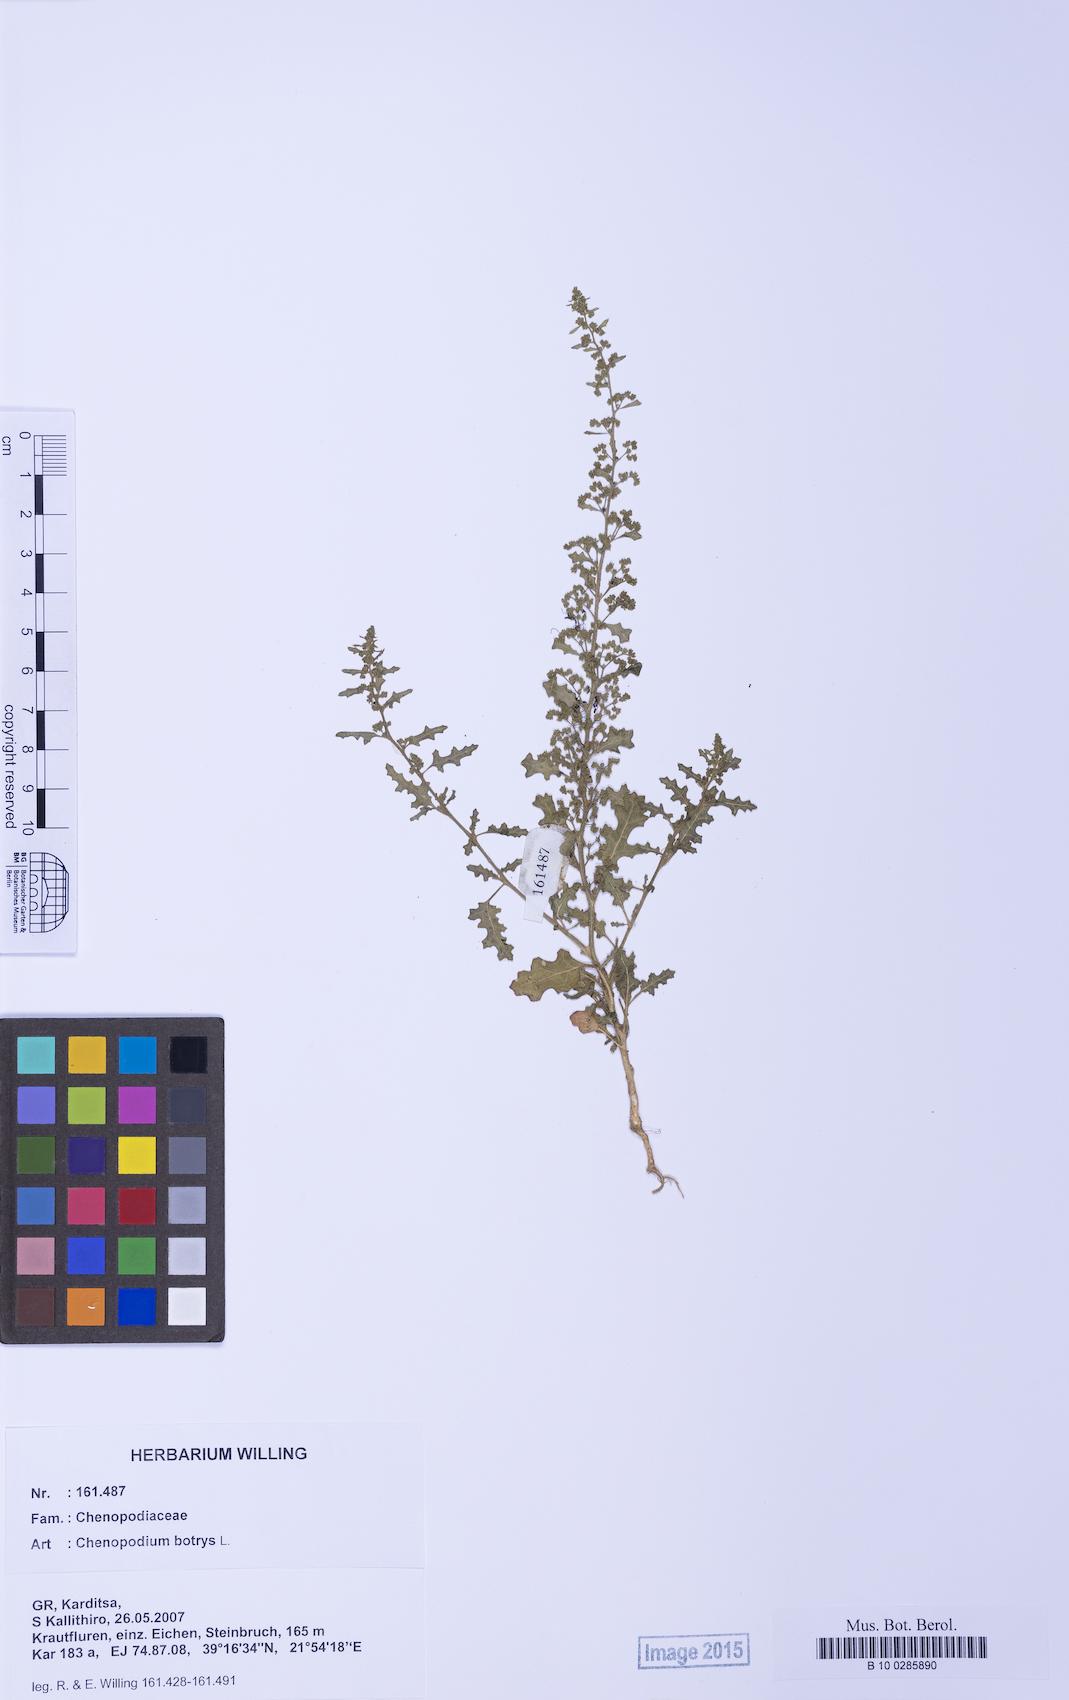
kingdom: Plantae
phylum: Tracheophyta
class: Magnoliopsida
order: Caryophyllales
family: Amaranthaceae
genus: Dysphania
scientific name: Dysphania botrys
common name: Feather-geranium
